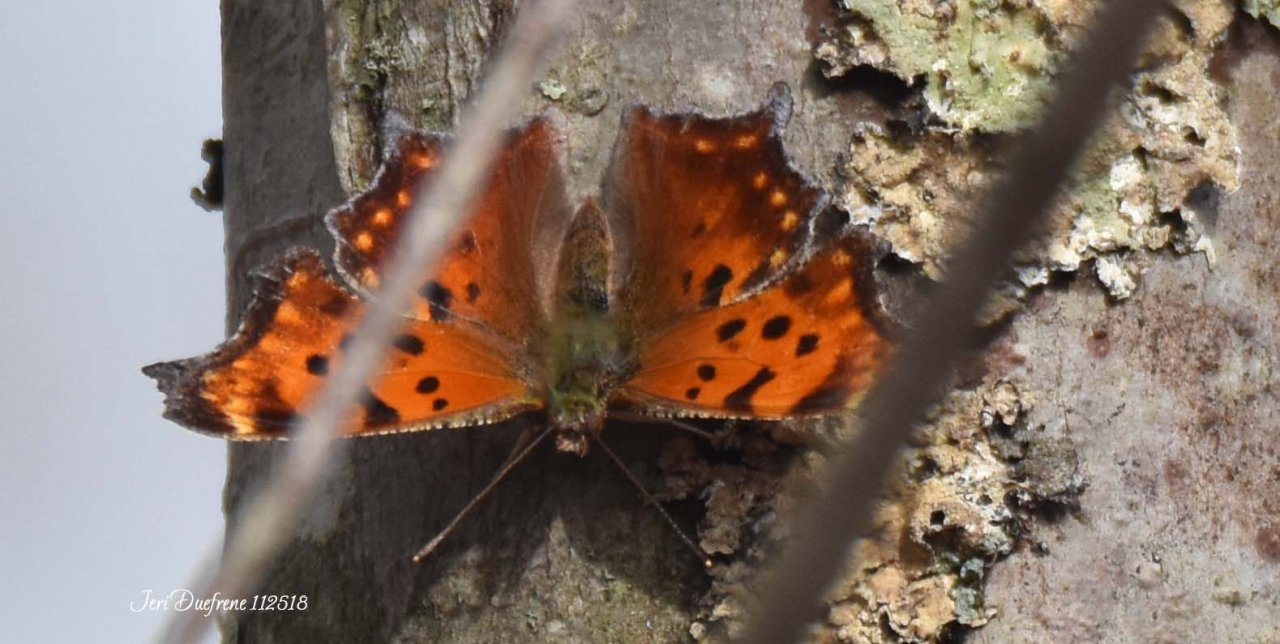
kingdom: Animalia
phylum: Arthropoda
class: Insecta
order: Lepidoptera
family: Nymphalidae
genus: Polygonia
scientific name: Polygonia comma
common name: Eastern Comma
